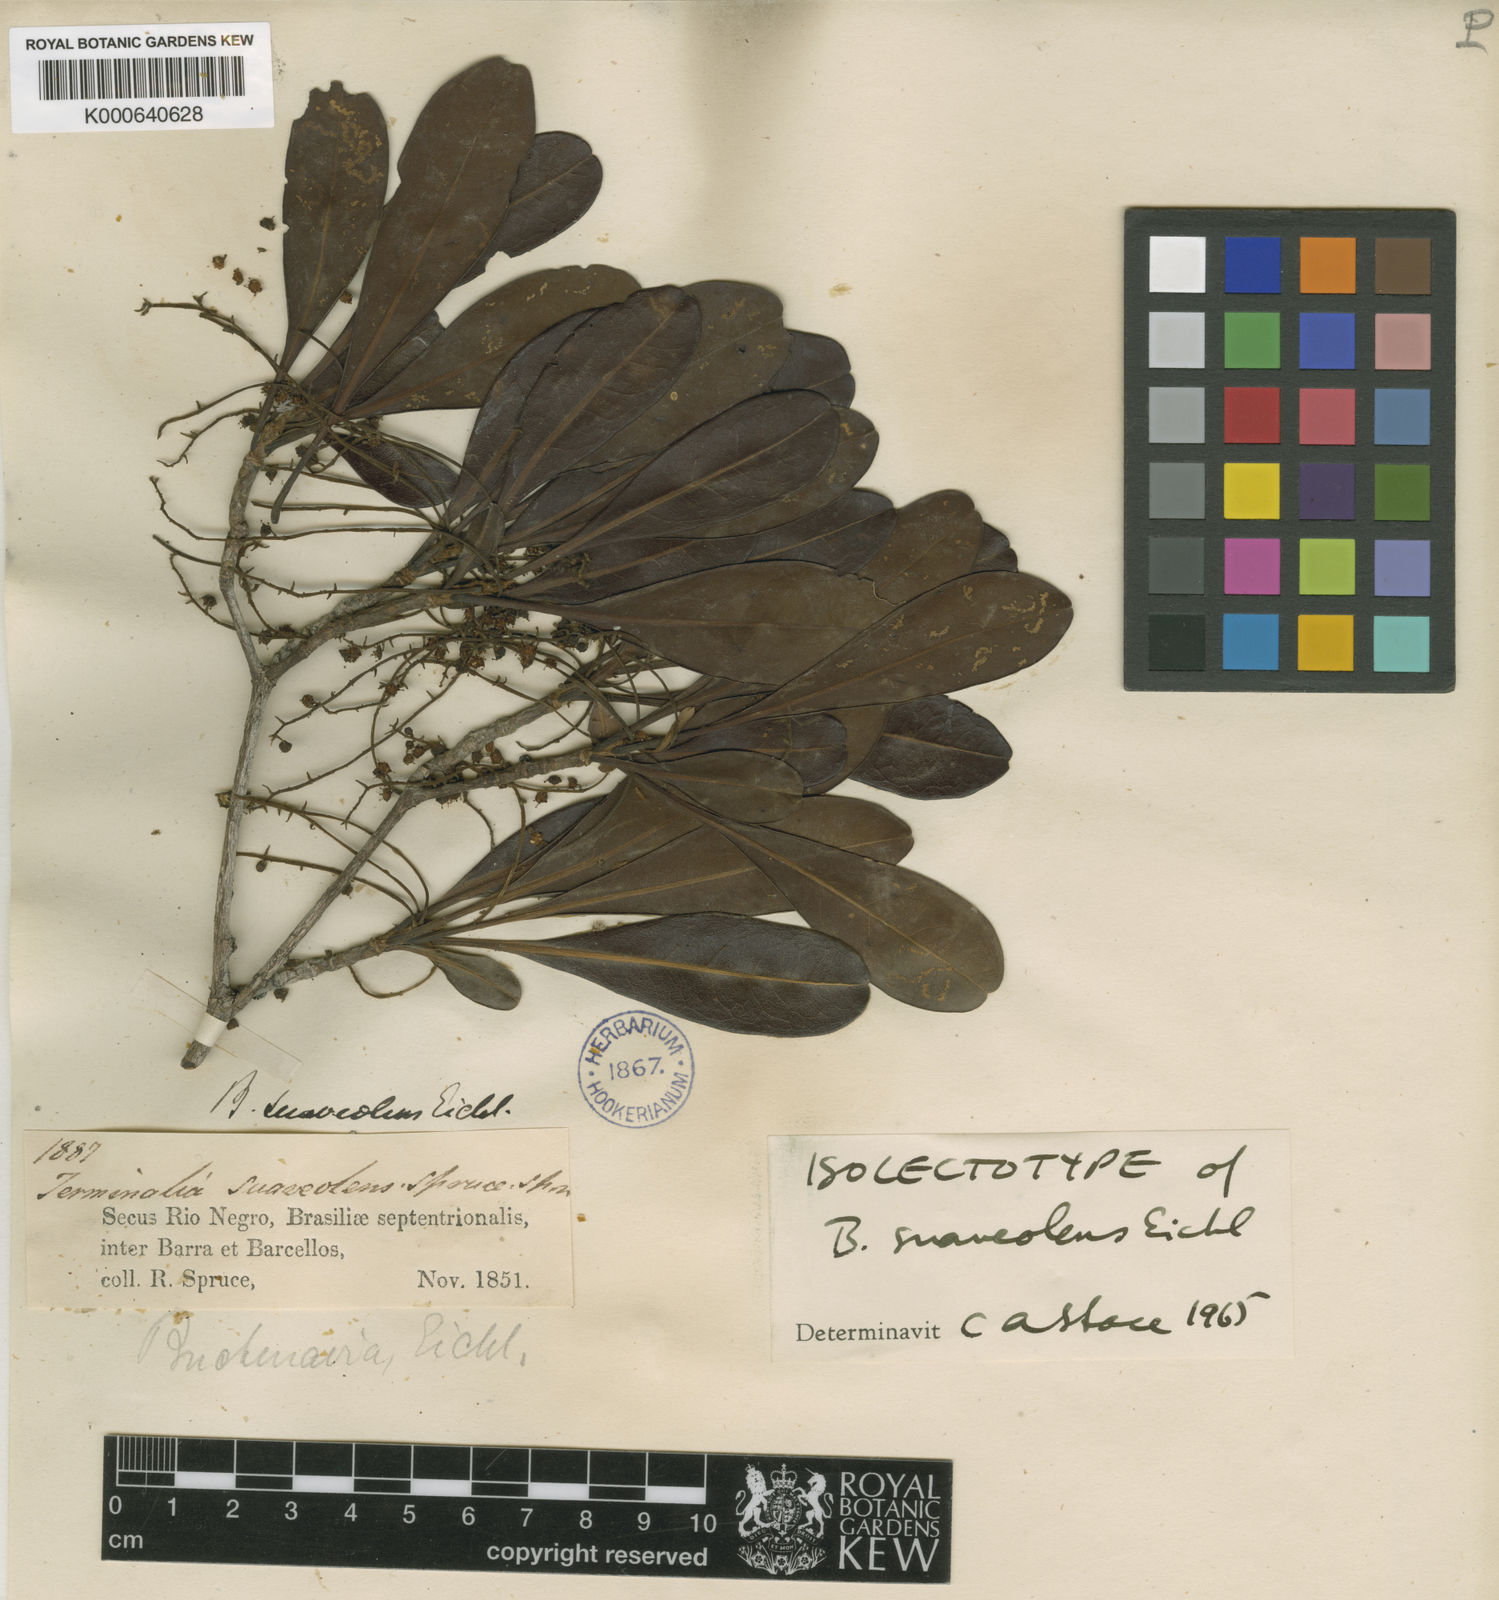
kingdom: Plantae
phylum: Tracheophyta
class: Magnoliopsida
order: Myrtales
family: Combretaceae
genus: Terminalia
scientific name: Terminalia suaveolens
